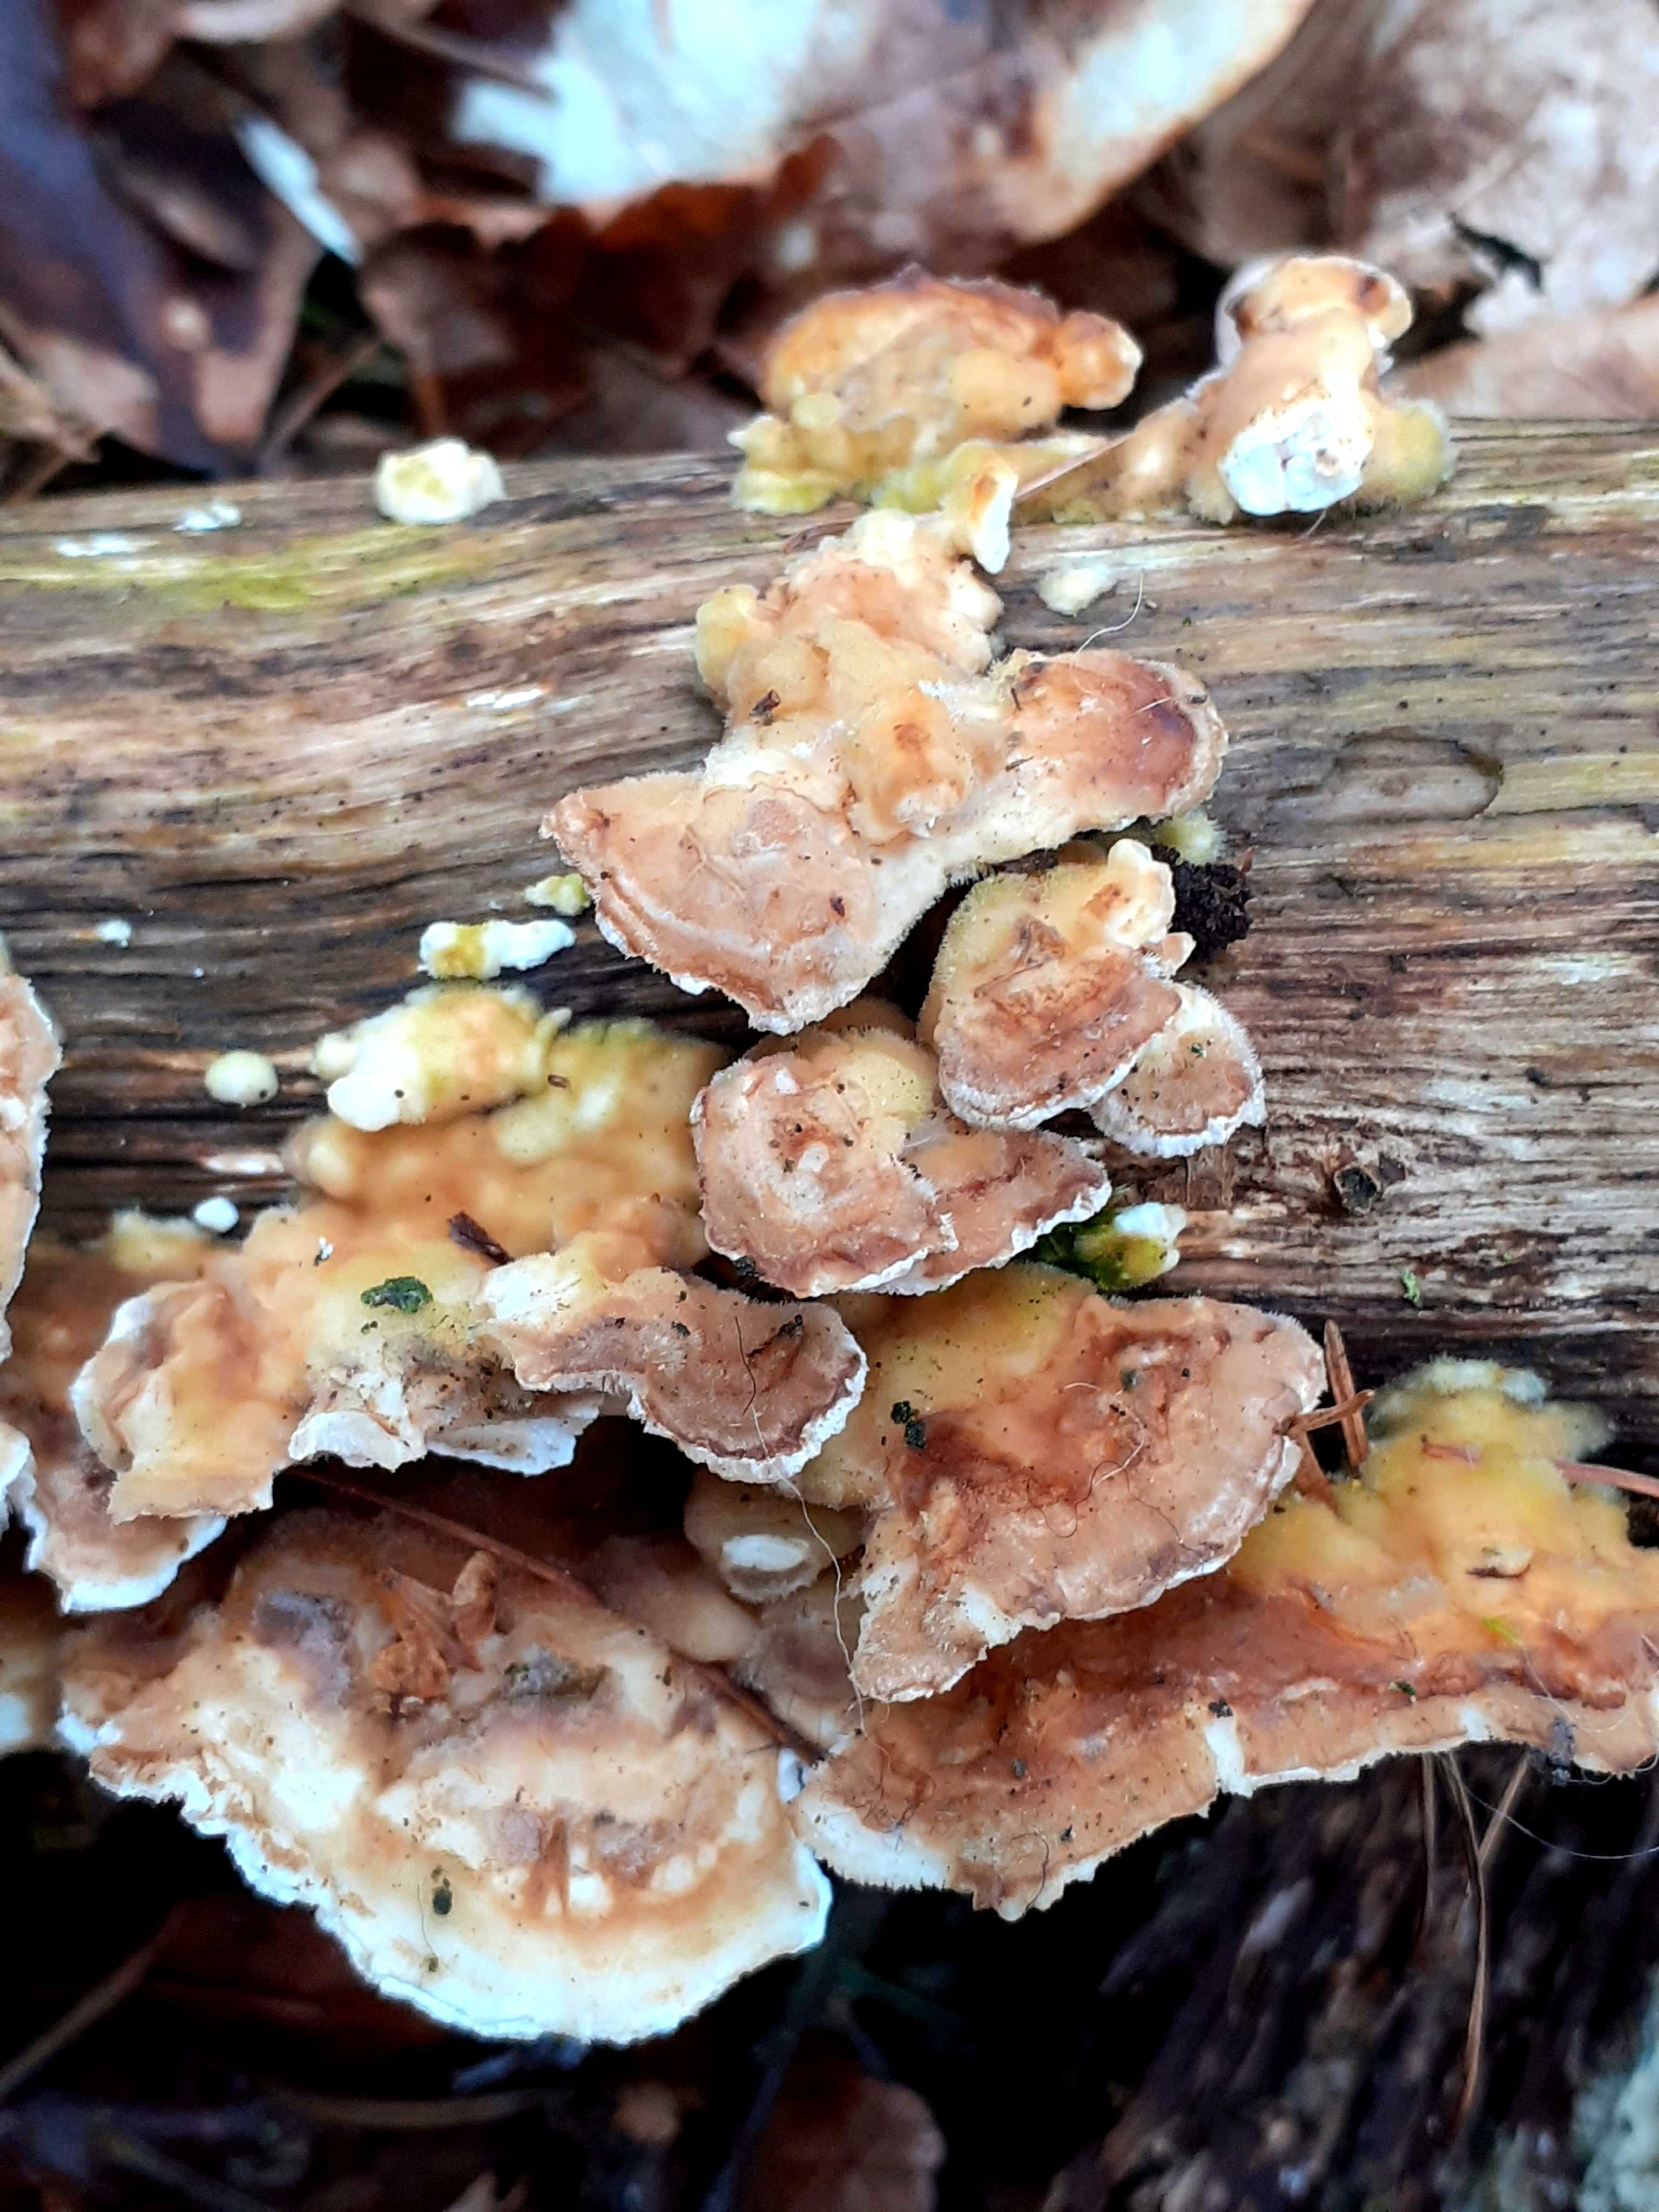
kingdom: Fungi
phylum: Basidiomycota
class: Agaricomycetes
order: Polyporales
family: Polyporaceae
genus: Trametes
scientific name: Trametes ochracea
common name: bæltet læderporesvamp
